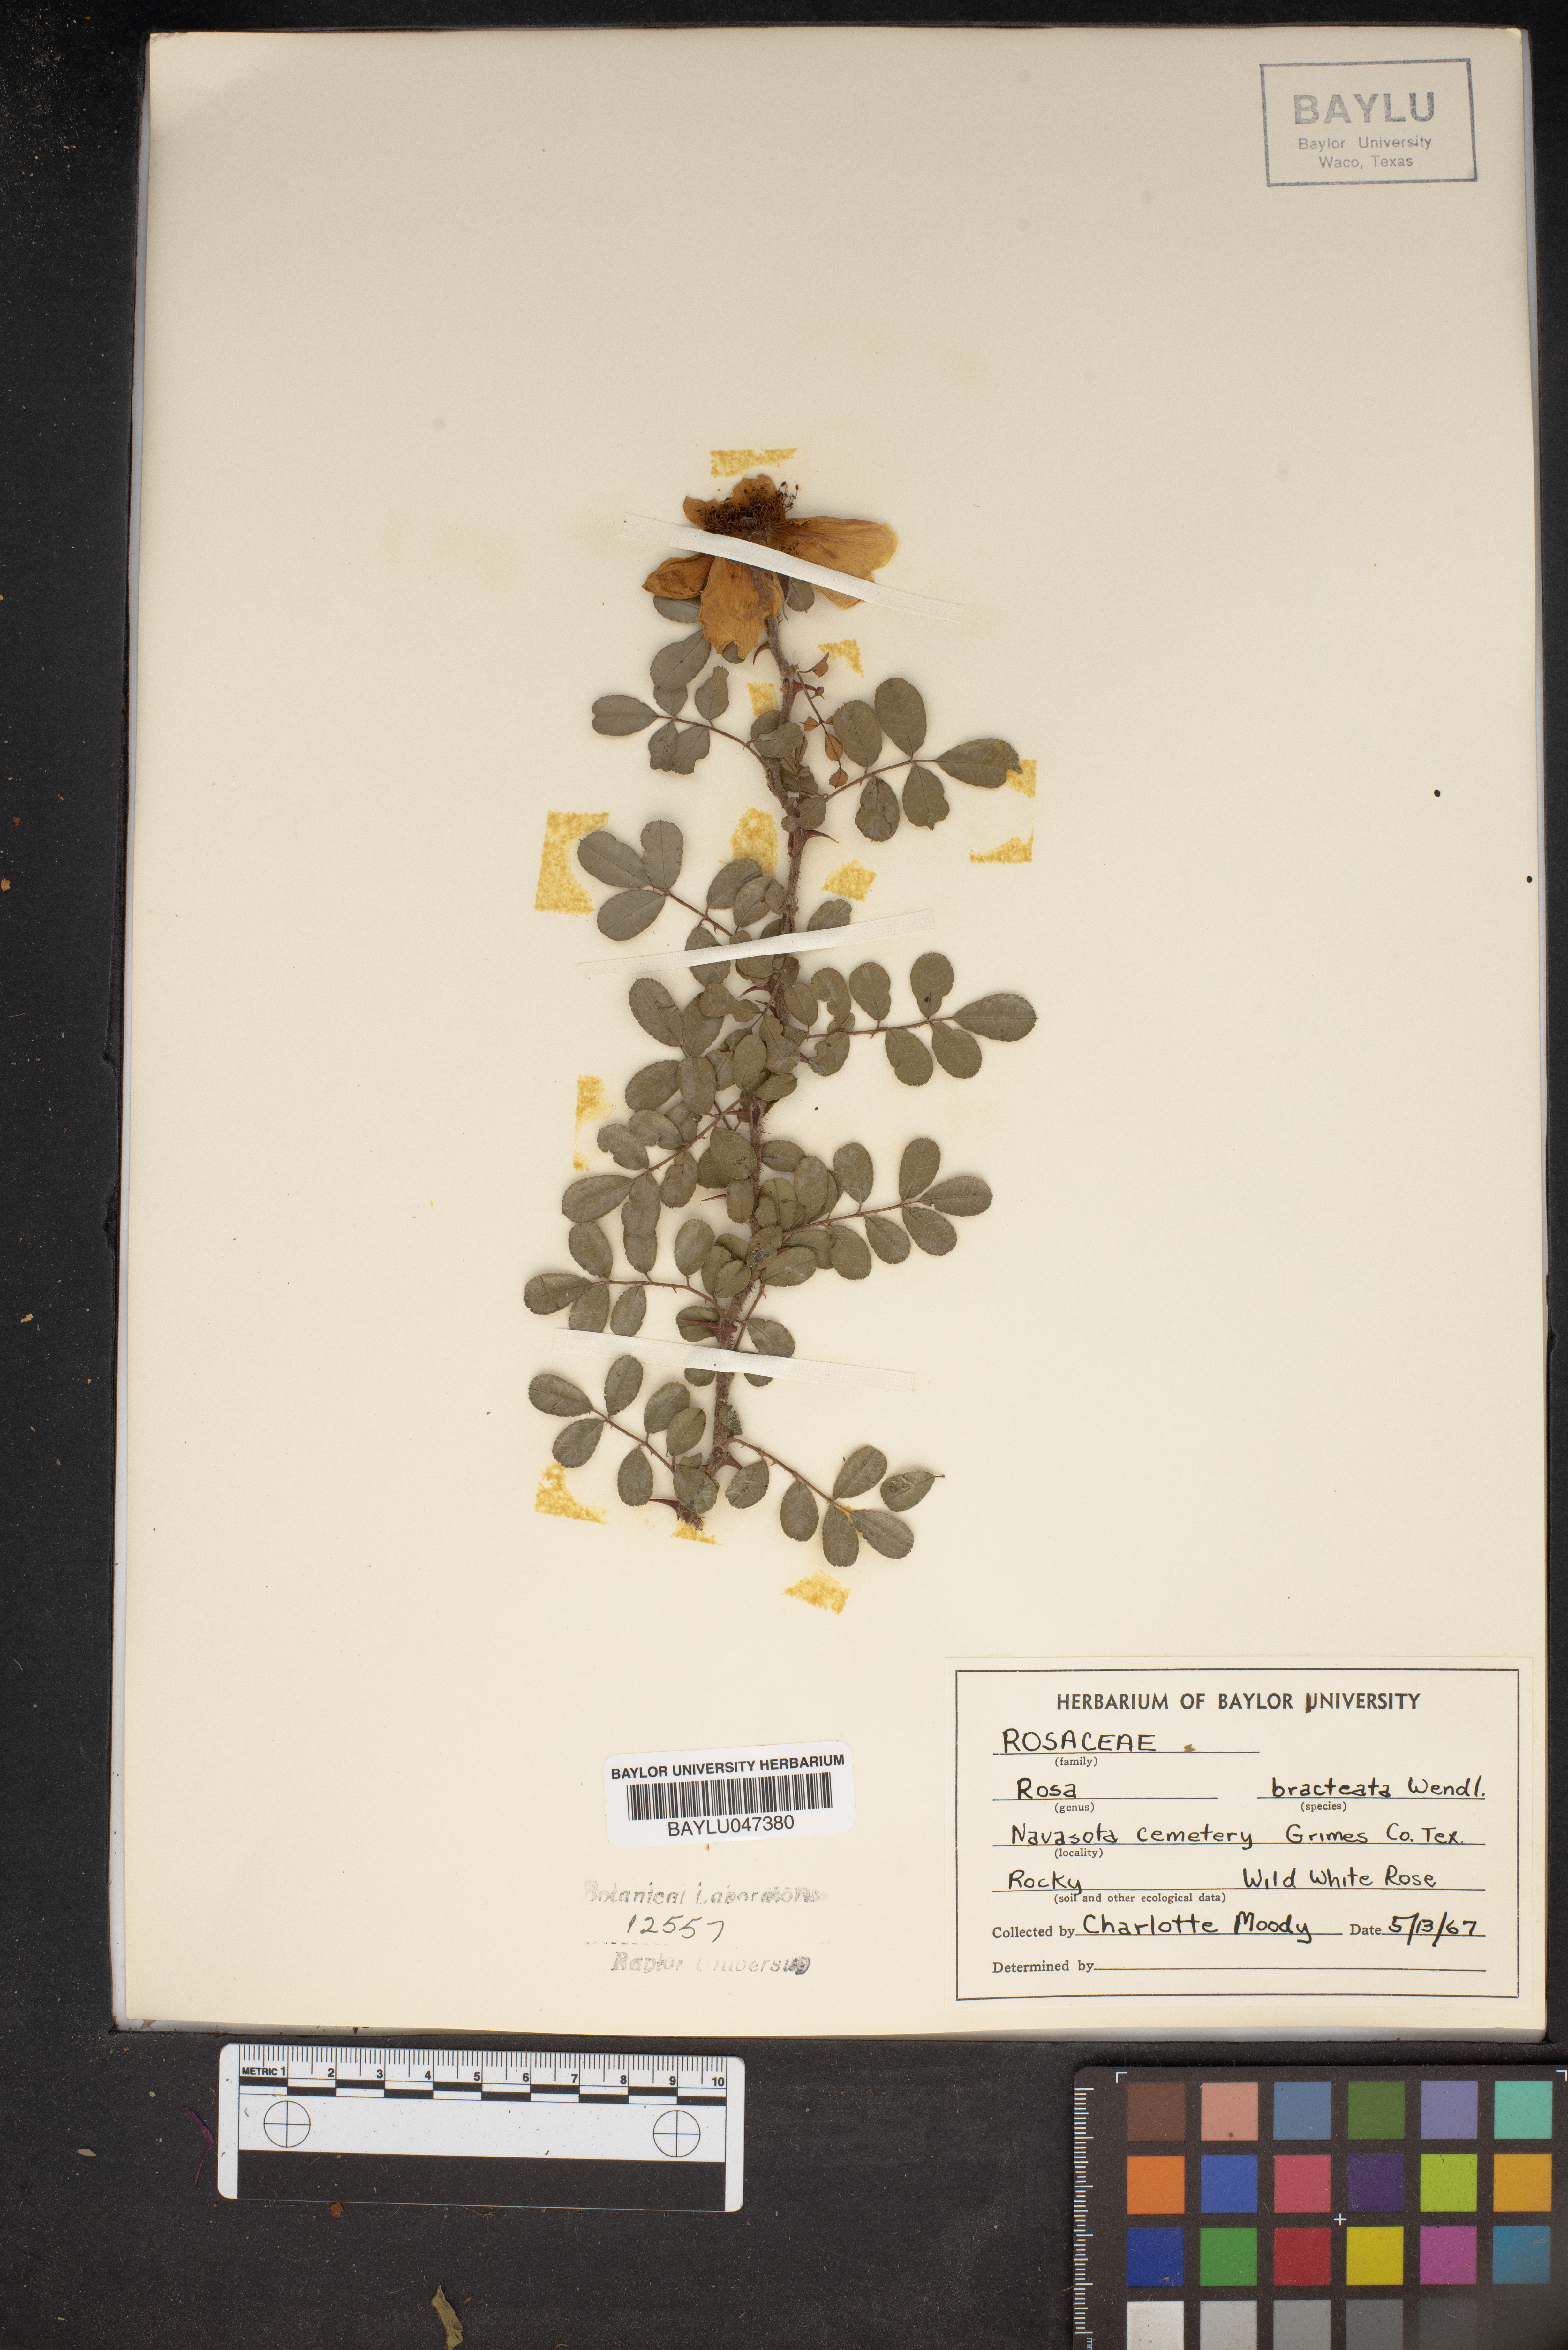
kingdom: Plantae
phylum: Tracheophyta
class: Magnoliopsida
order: Rosales
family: Rosaceae
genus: Rosa
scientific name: Rosa bracteata
